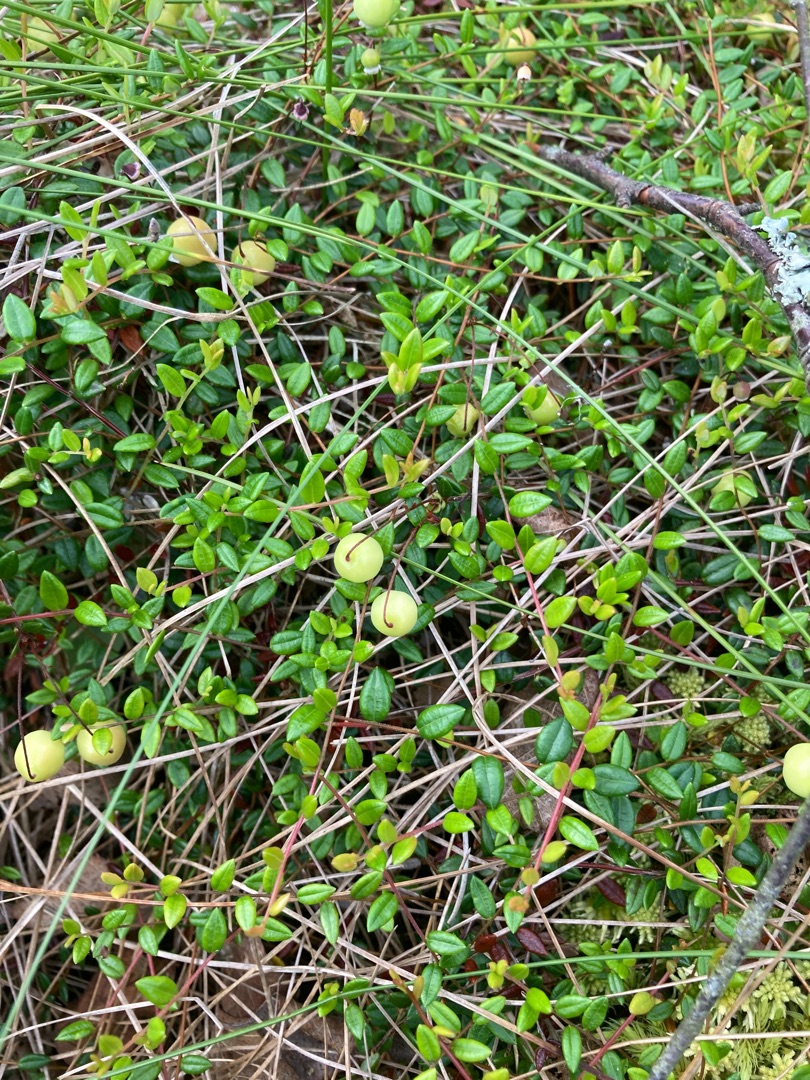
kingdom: Plantae
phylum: Tracheophyta
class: Magnoliopsida
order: Ericales
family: Ericaceae
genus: Vaccinium
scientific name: Vaccinium oxycoccos
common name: Tranebær
